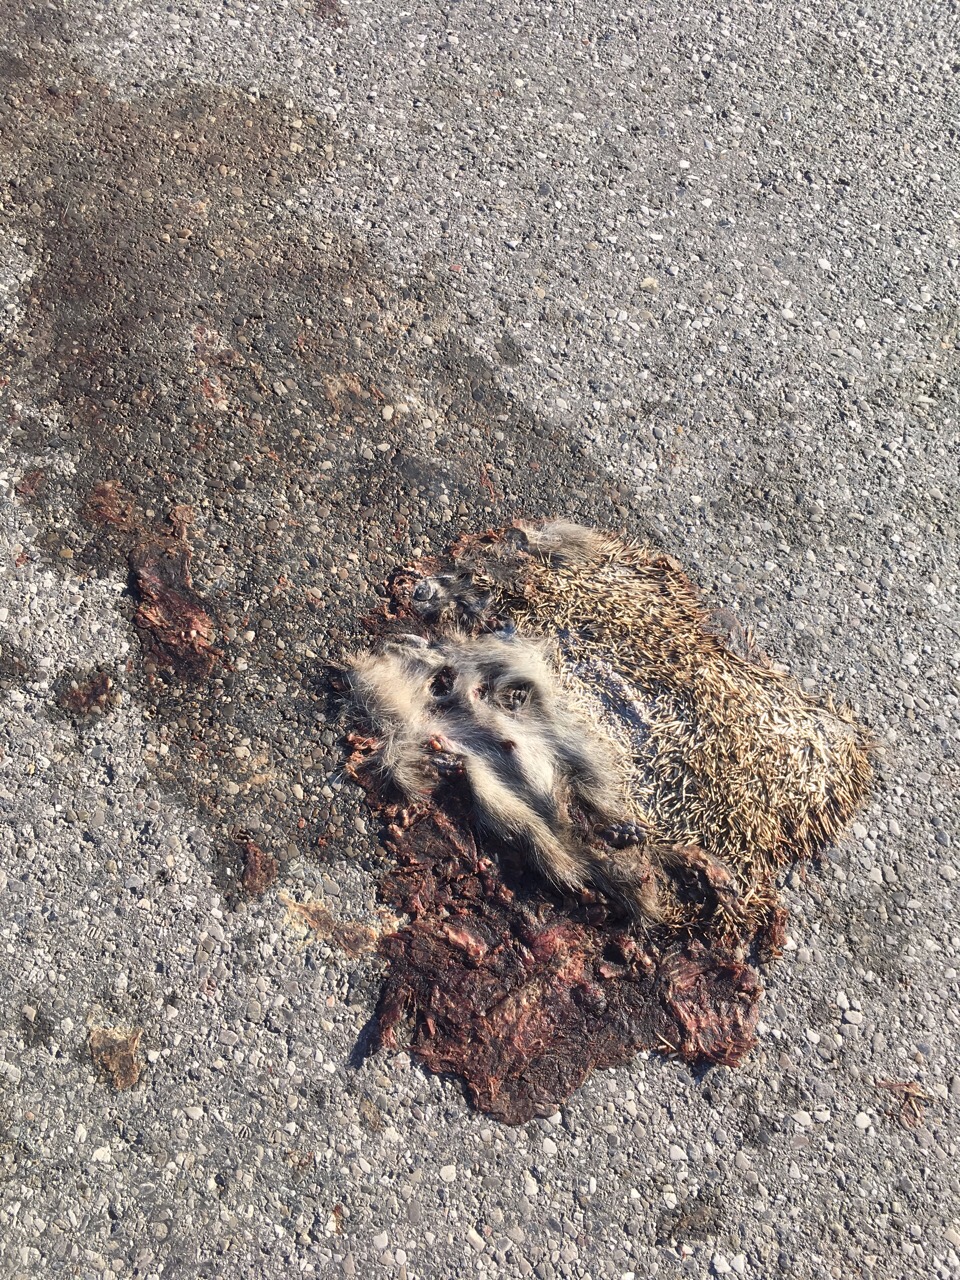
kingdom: Animalia
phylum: Chordata
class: Mammalia
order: Erinaceomorpha
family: Erinaceidae
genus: Erinaceus
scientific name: Erinaceus
